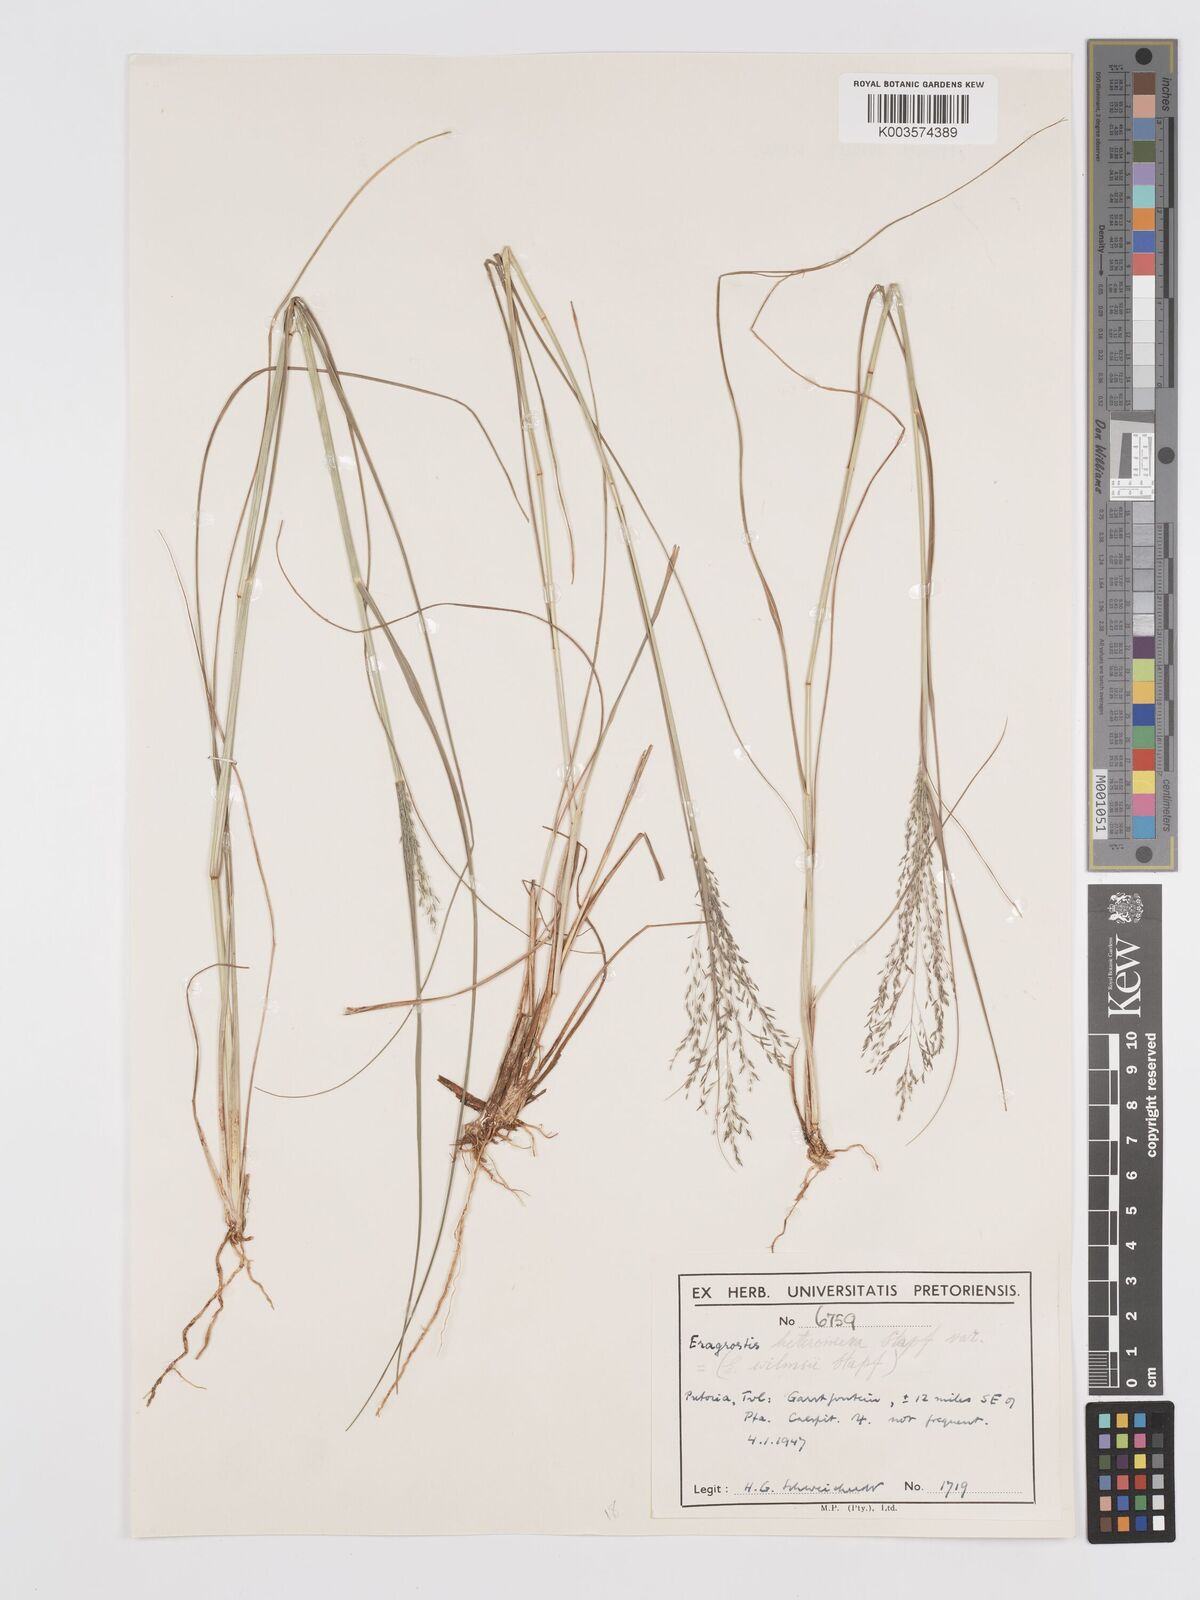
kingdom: Plantae
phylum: Tracheophyta
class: Liliopsida
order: Poales
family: Poaceae
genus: Eragrostis
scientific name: Eragrostis heteromera
